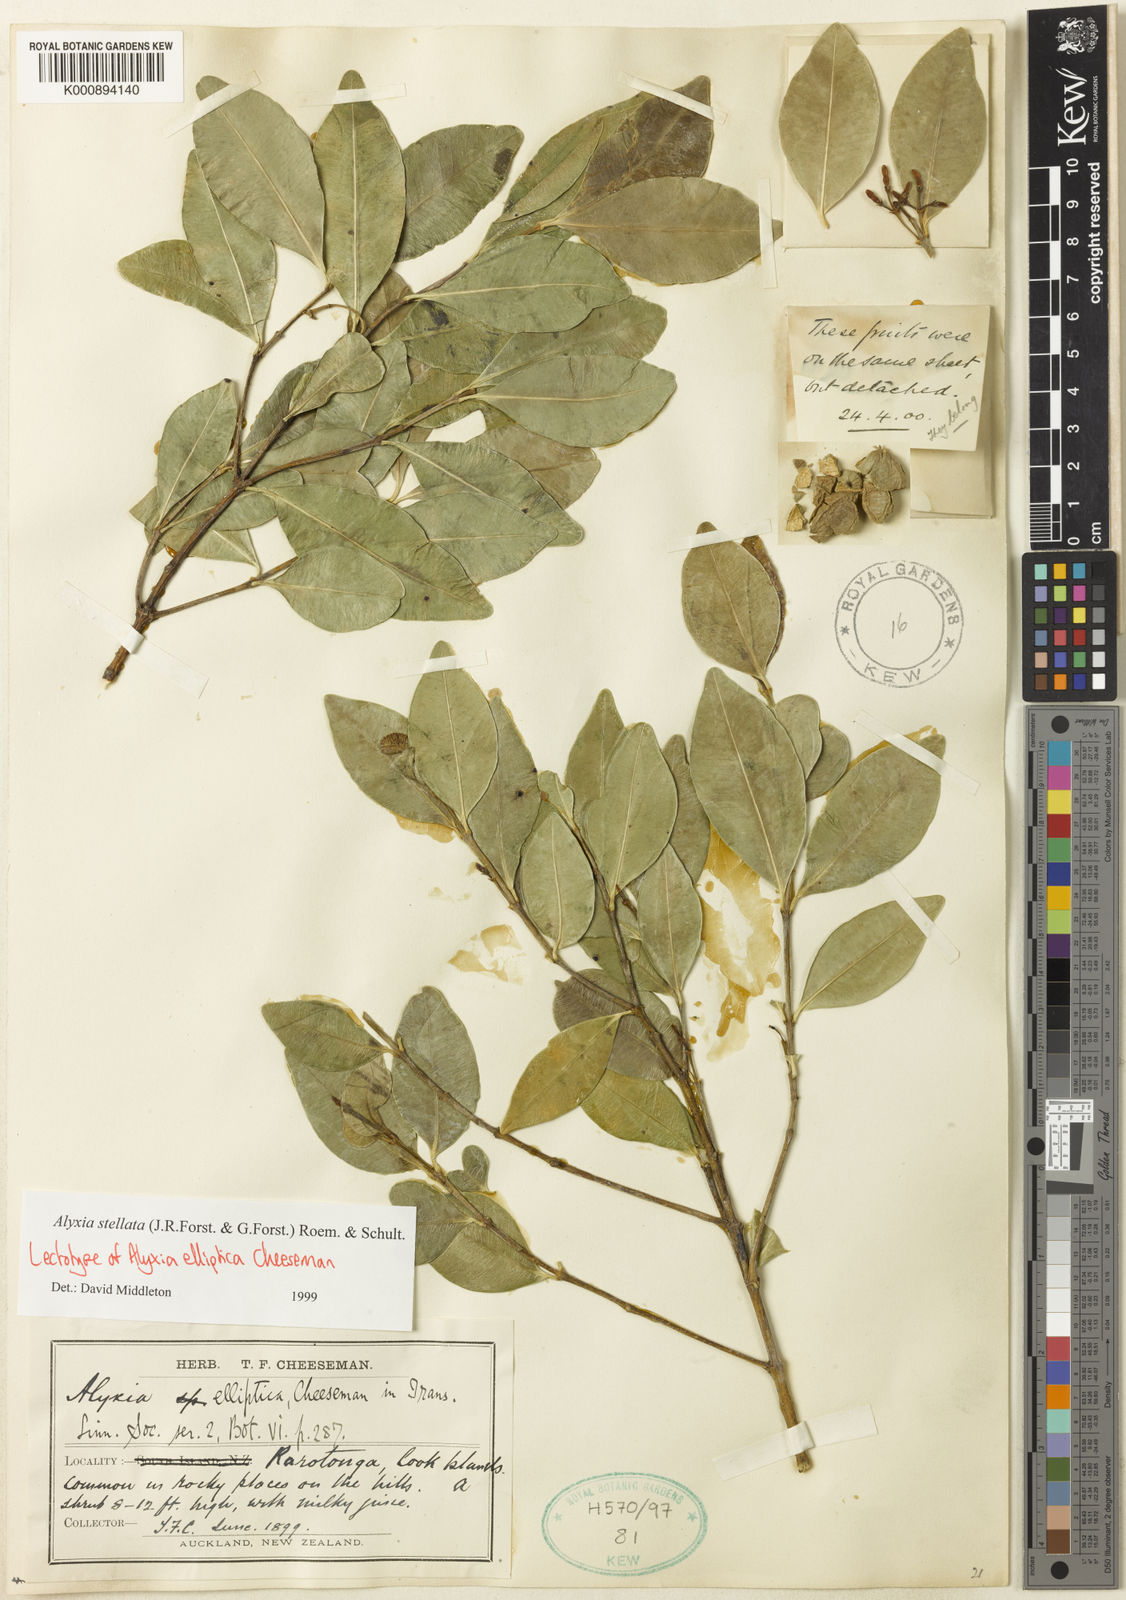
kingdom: Plantae
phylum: Tracheophyta
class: Magnoliopsida
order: Gentianales
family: Apocynaceae
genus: Alyxia
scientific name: Alyxia stellata
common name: Maile
